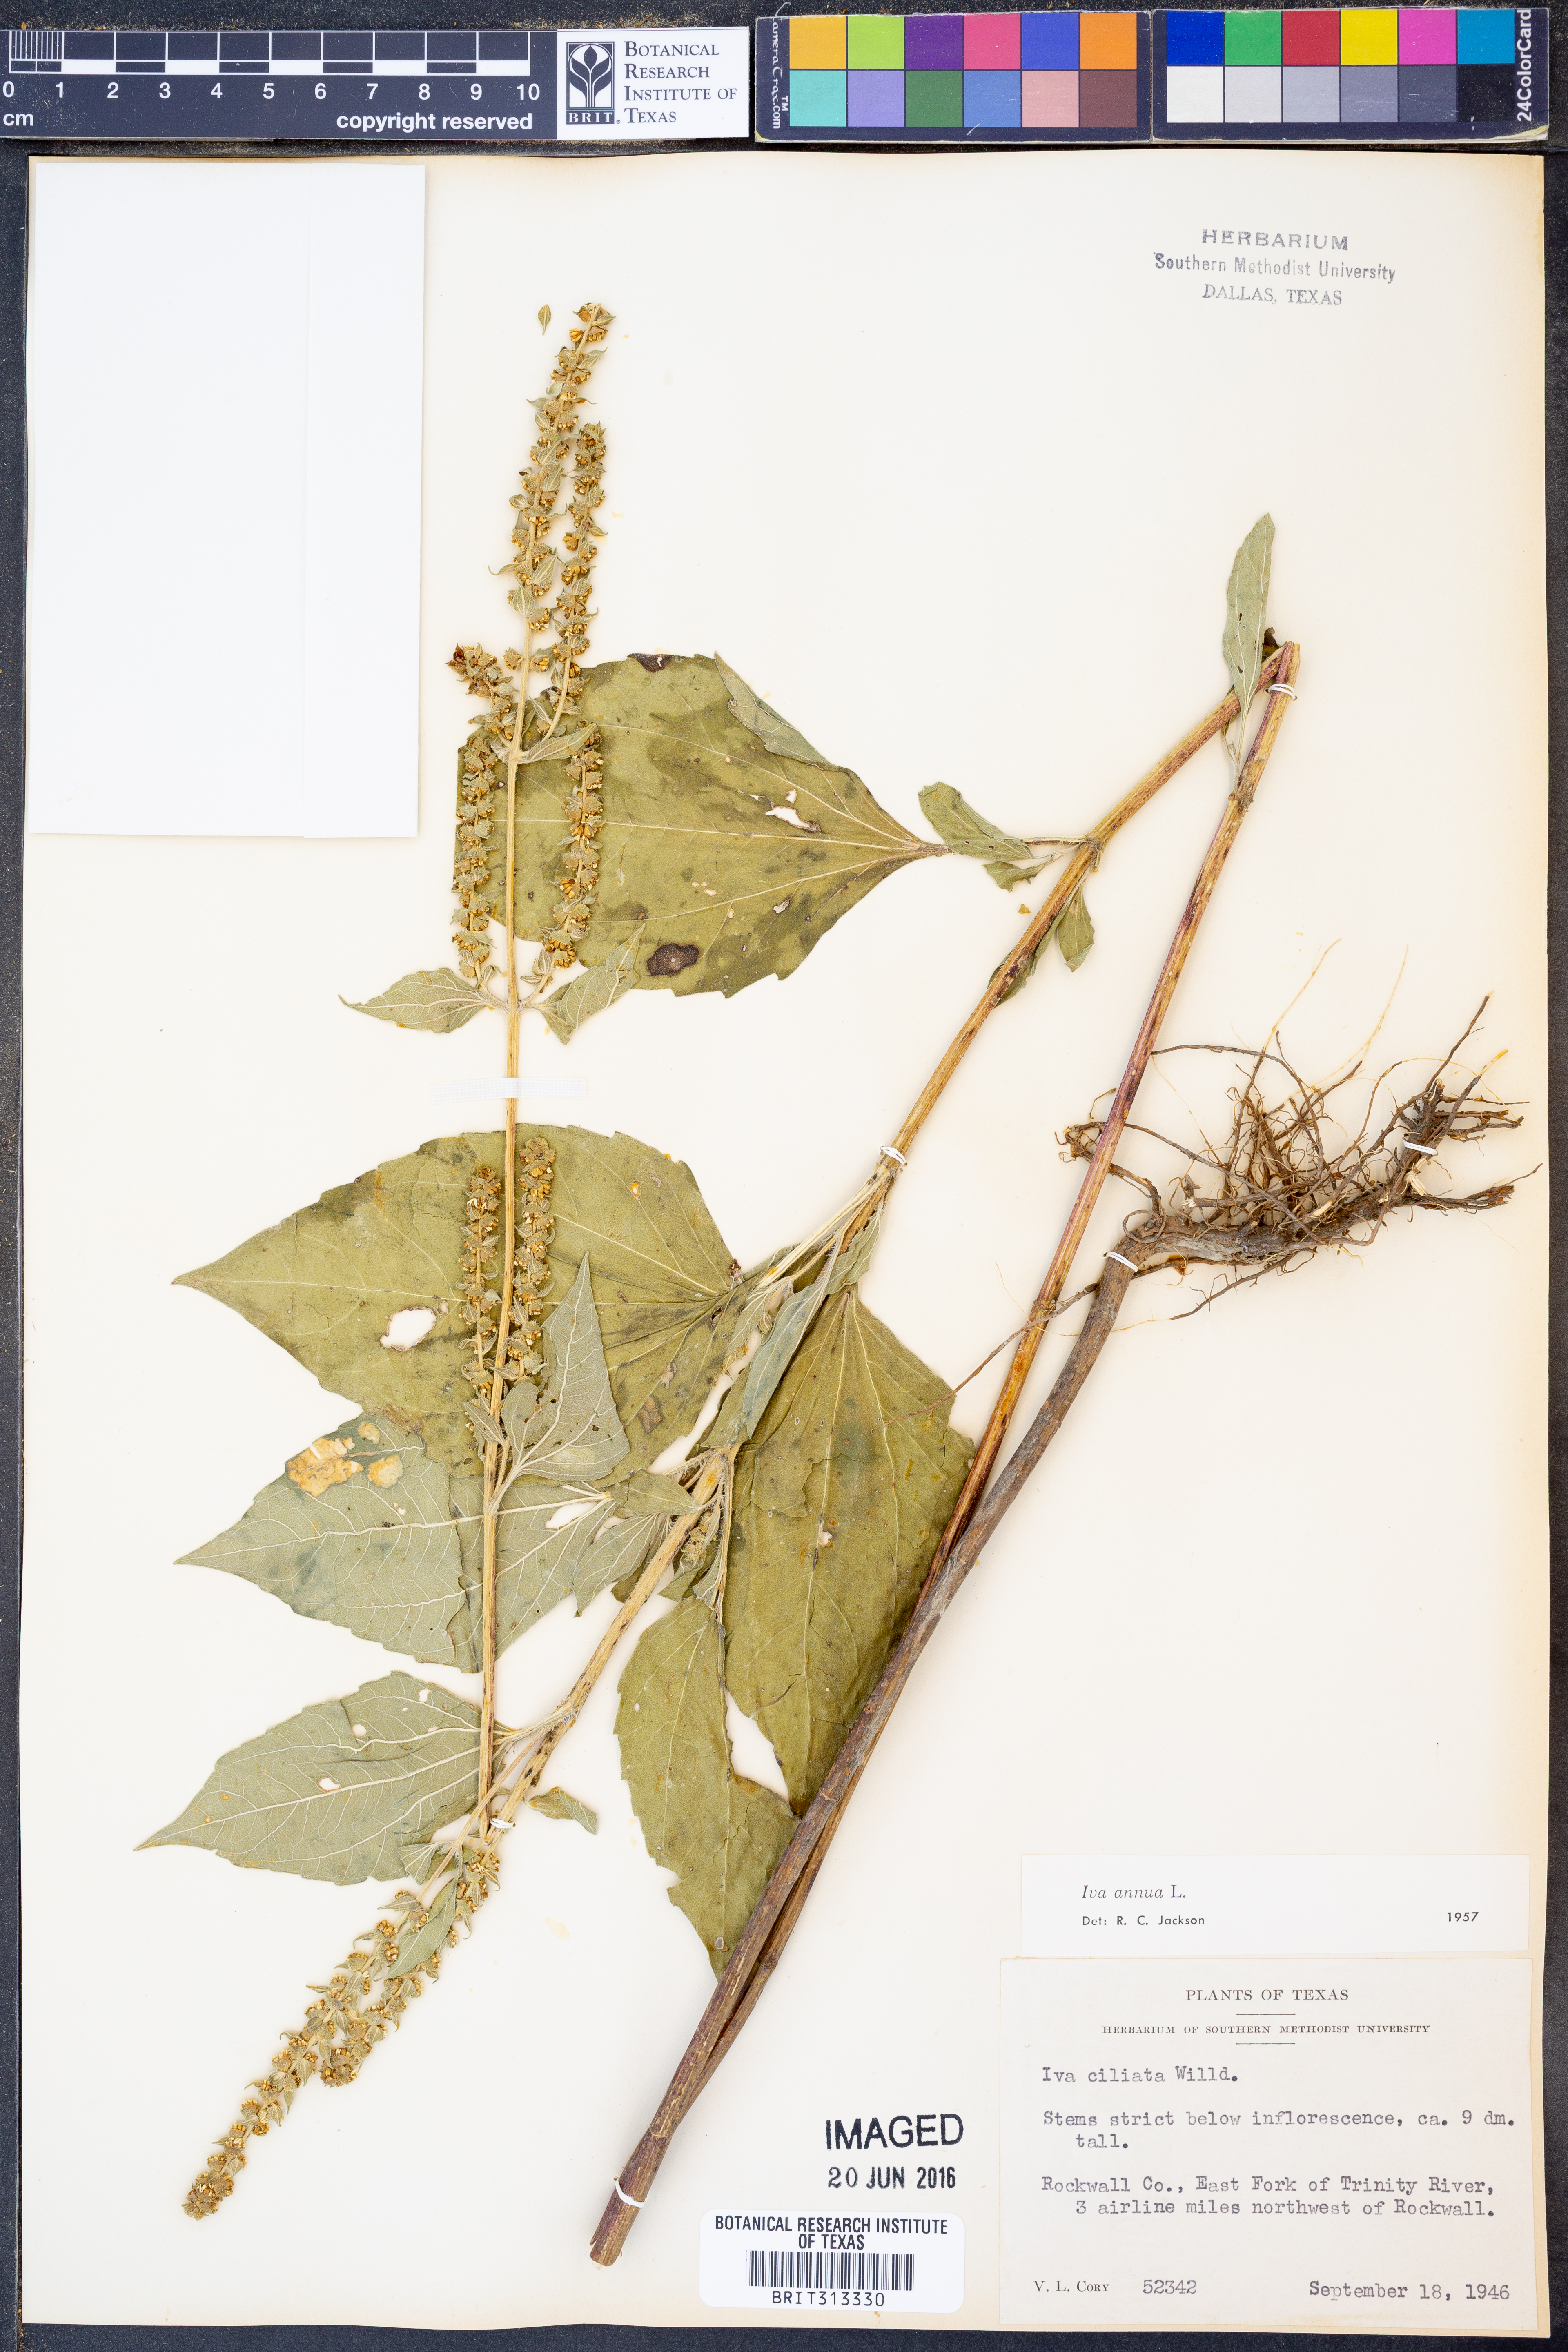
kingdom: Plantae
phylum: Tracheophyta
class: Magnoliopsida
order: Asterales
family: Asteraceae
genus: Iva
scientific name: Iva annua
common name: Marsh-elder
